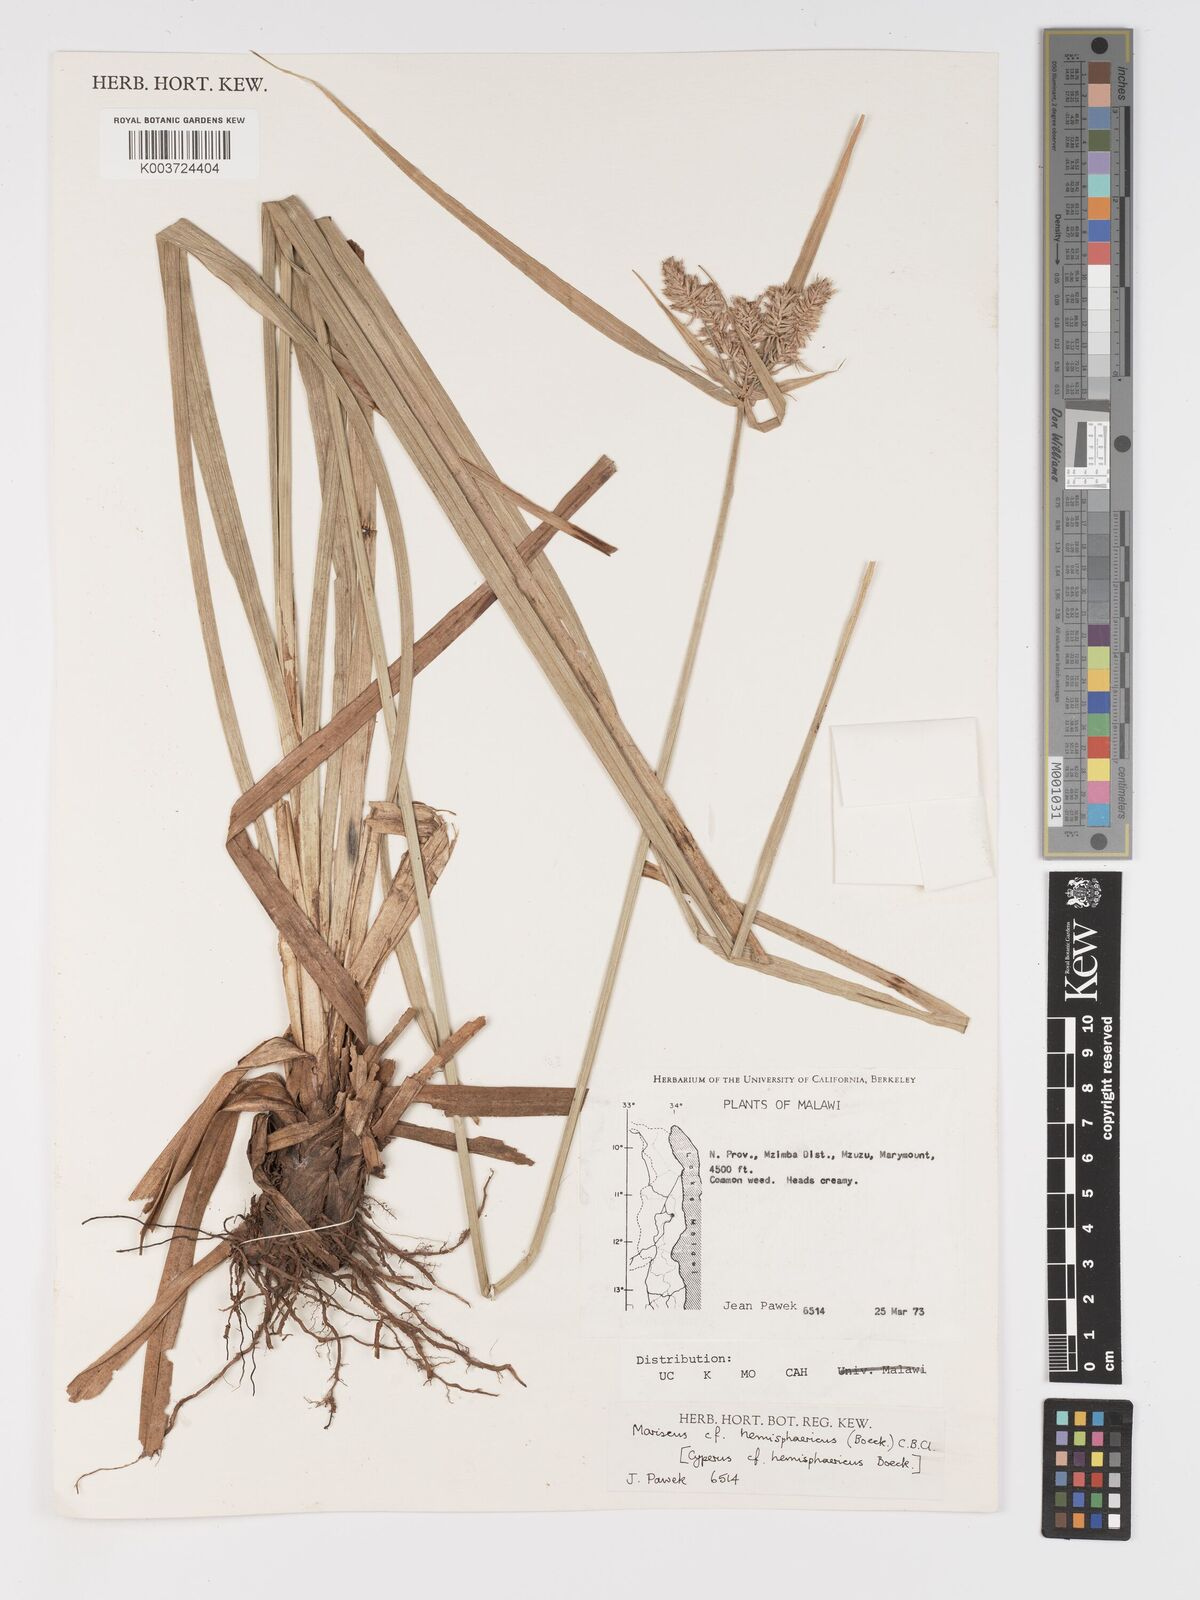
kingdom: Plantae
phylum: Tracheophyta
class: Liliopsida
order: Poales
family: Cyperaceae
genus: Cyperus
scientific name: Cyperus hemisphaericus
